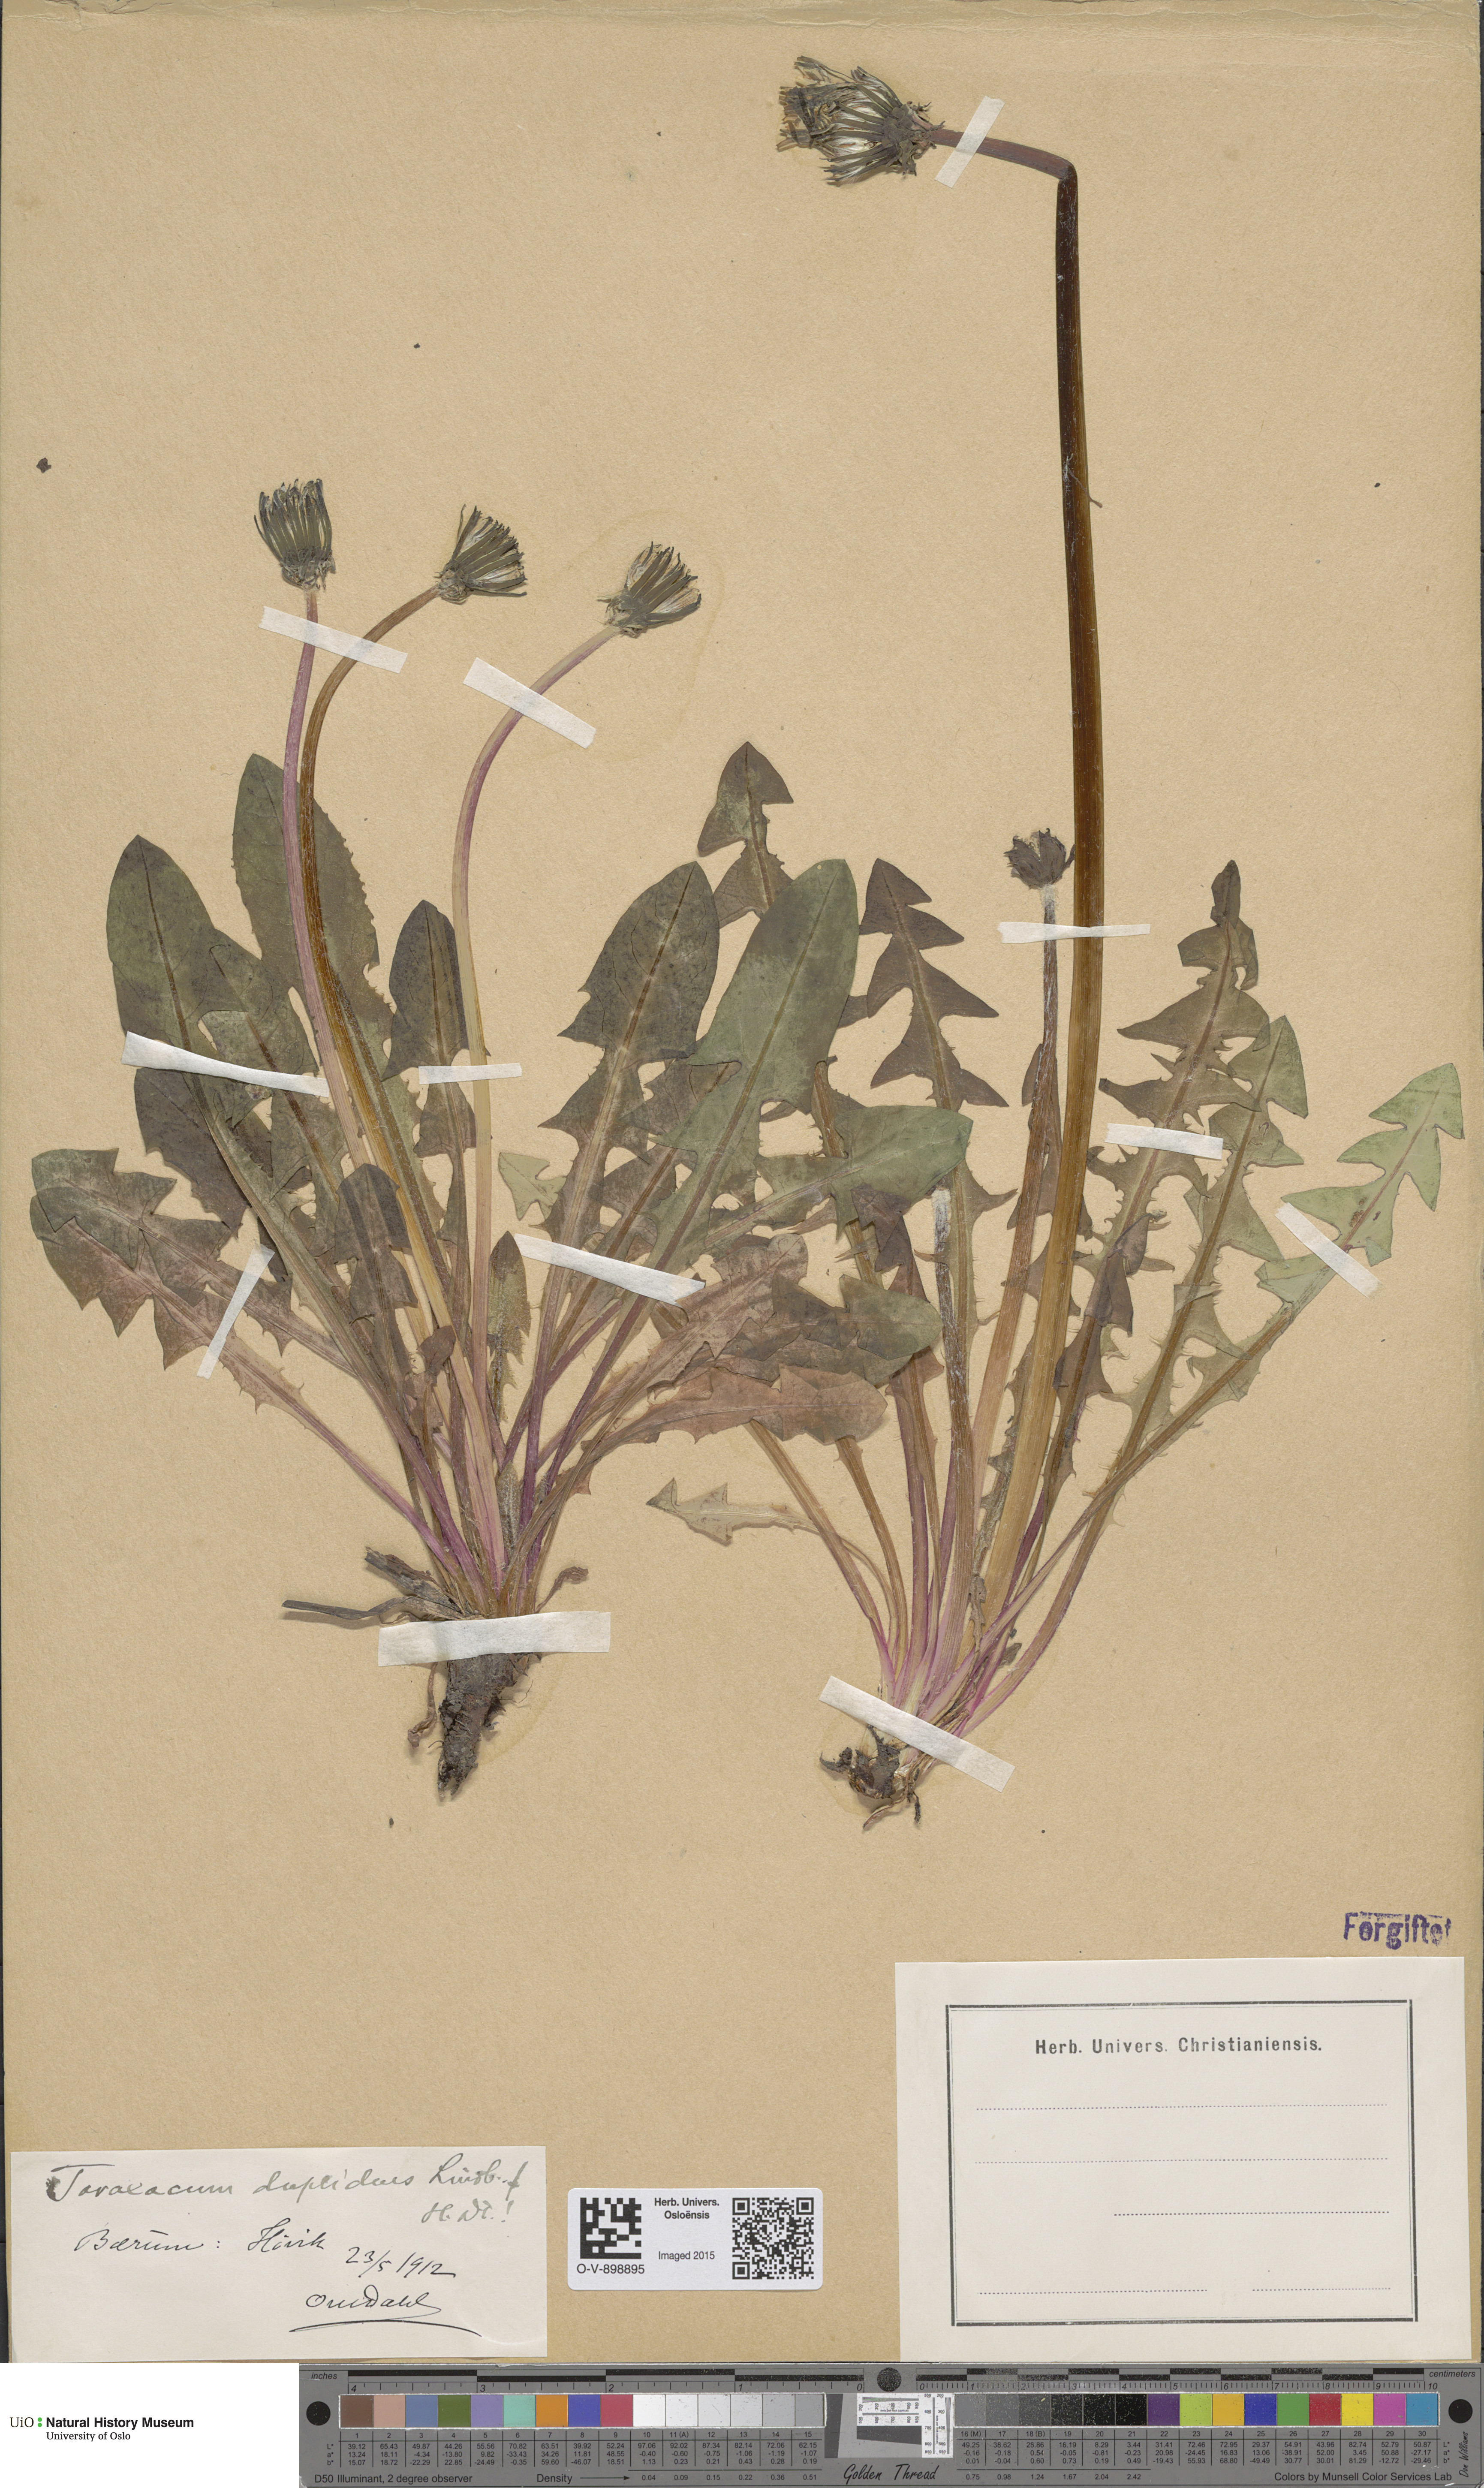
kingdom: Plantae
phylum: Tracheophyta
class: Magnoliopsida
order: Asterales
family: Asteraceae
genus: Taraxacum
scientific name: Taraxacum ostenfeldii
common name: Ostenfeld's dandelion
